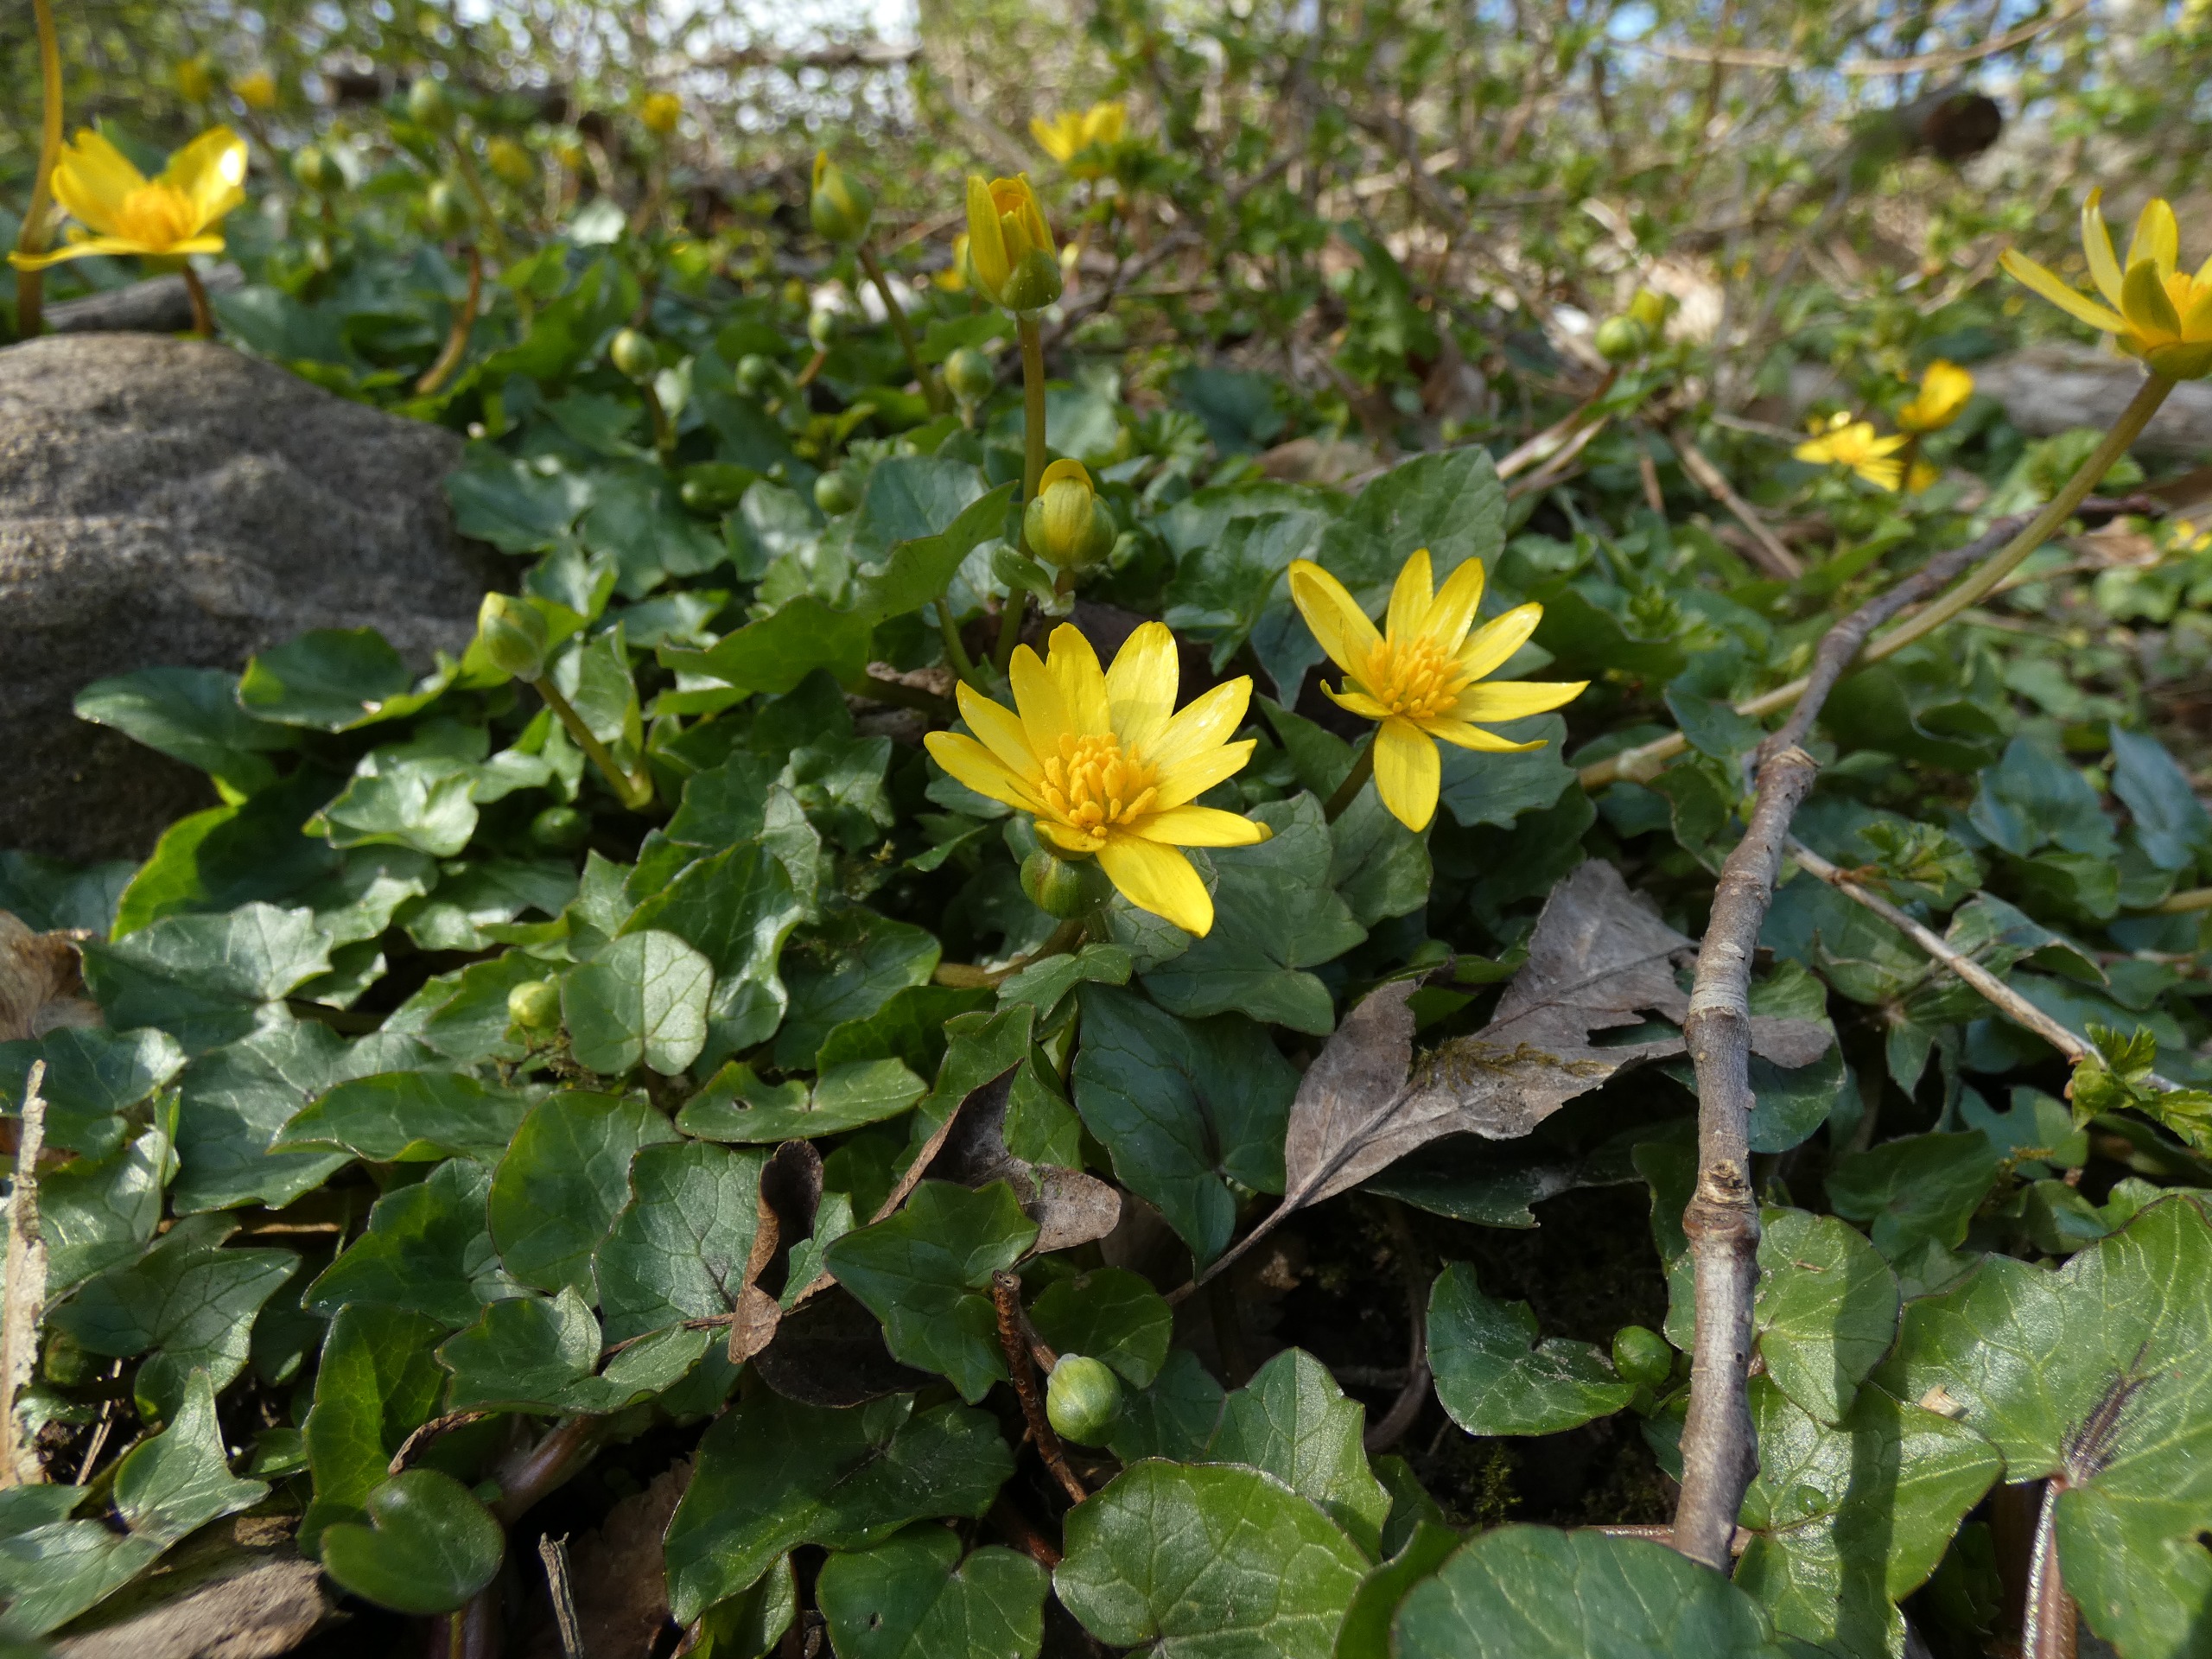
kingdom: Plantae
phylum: Tracheophyta
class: Magnoliopsida
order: Ranunculales
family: Ranunculaceae
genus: Ficaria
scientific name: Ficaria verna
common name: Vorterod
